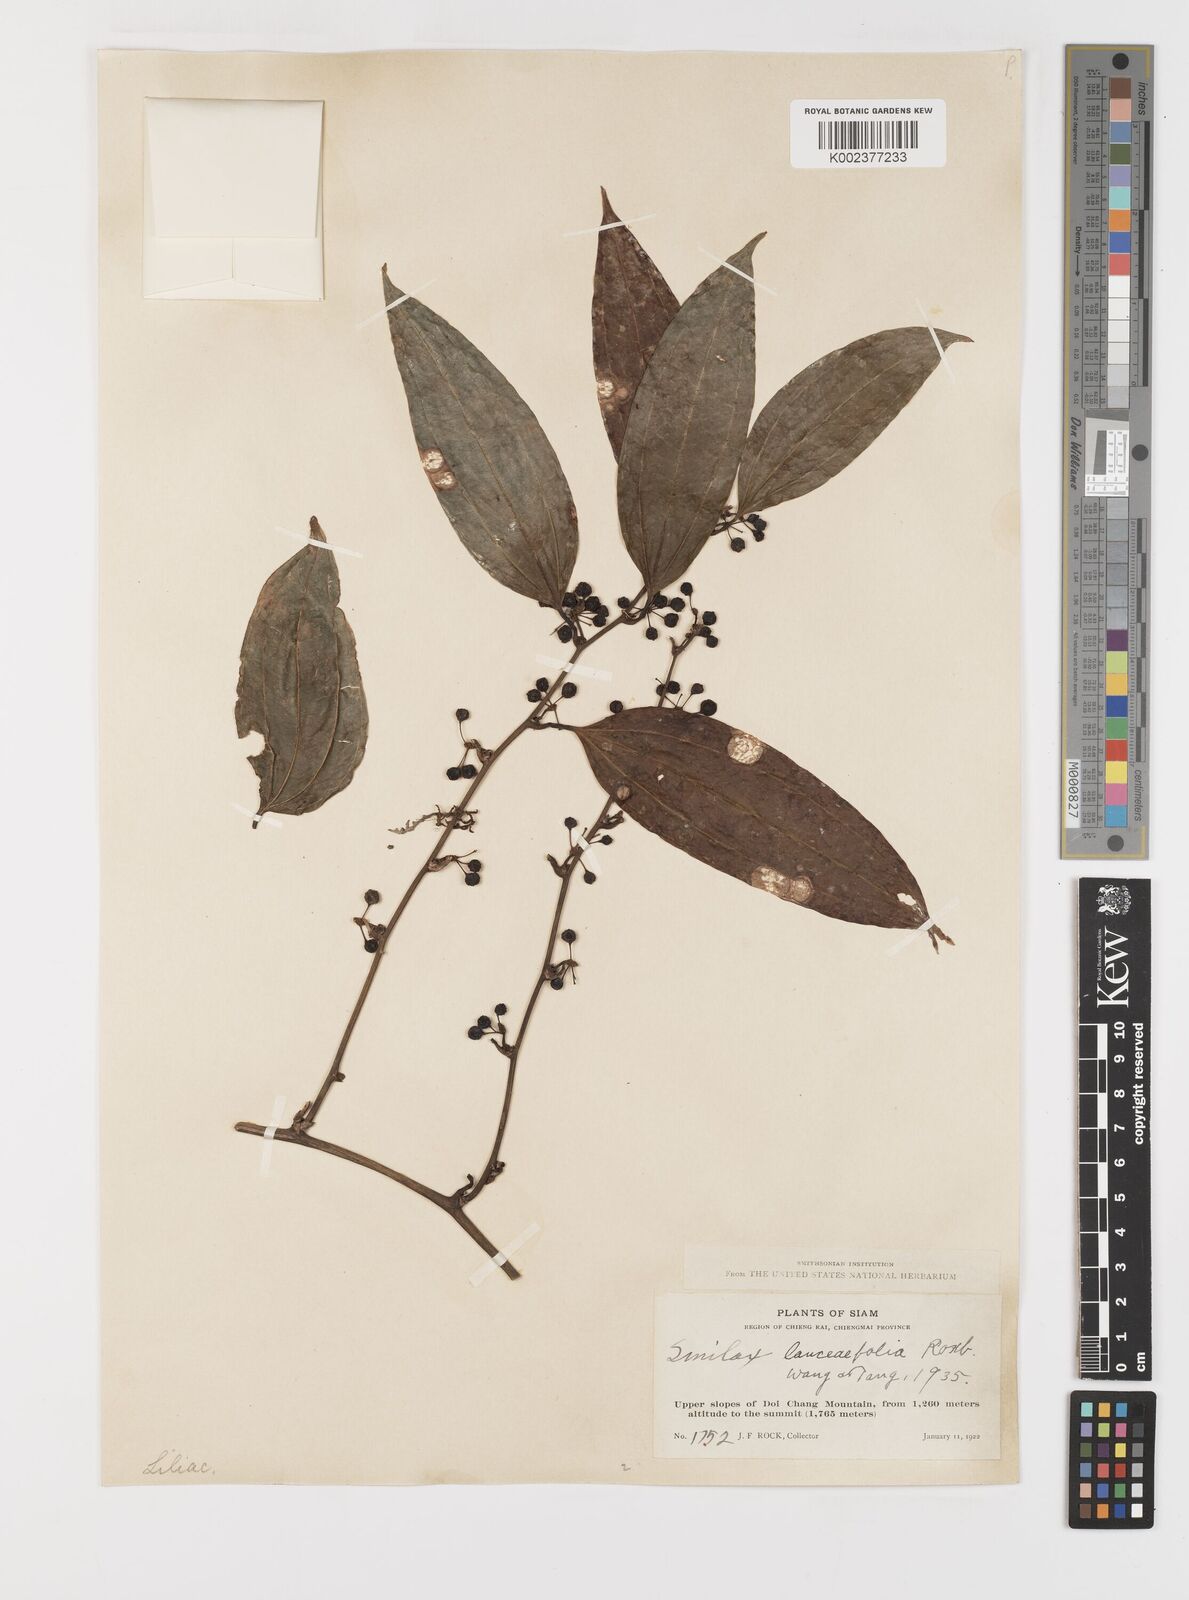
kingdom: Plantae
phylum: Tracheophyta
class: Liliopsida
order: Liliales
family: Smilacaceae
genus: Smilax
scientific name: Smilax lanceifolia
